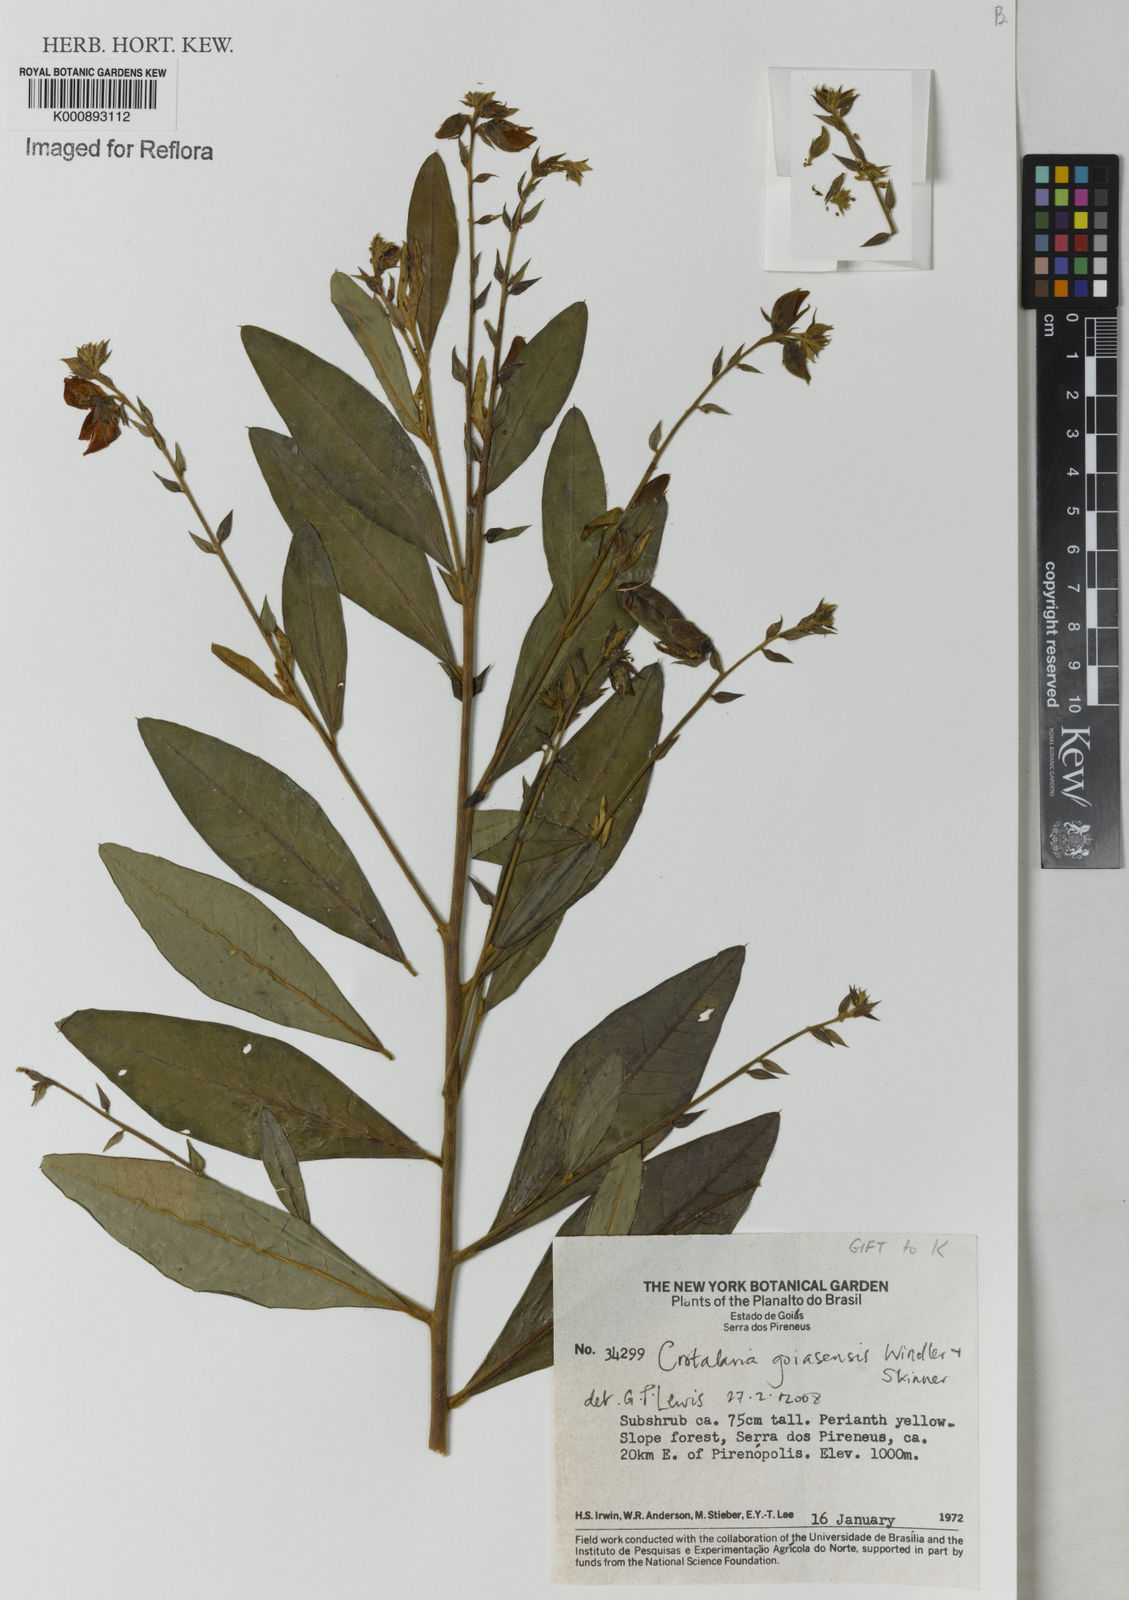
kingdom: Plantae
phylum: Tracheophyta
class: Magnoliopsida
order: Fabales
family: Fabaceae
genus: Crotalaria
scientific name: Crotalaria goiasensis
